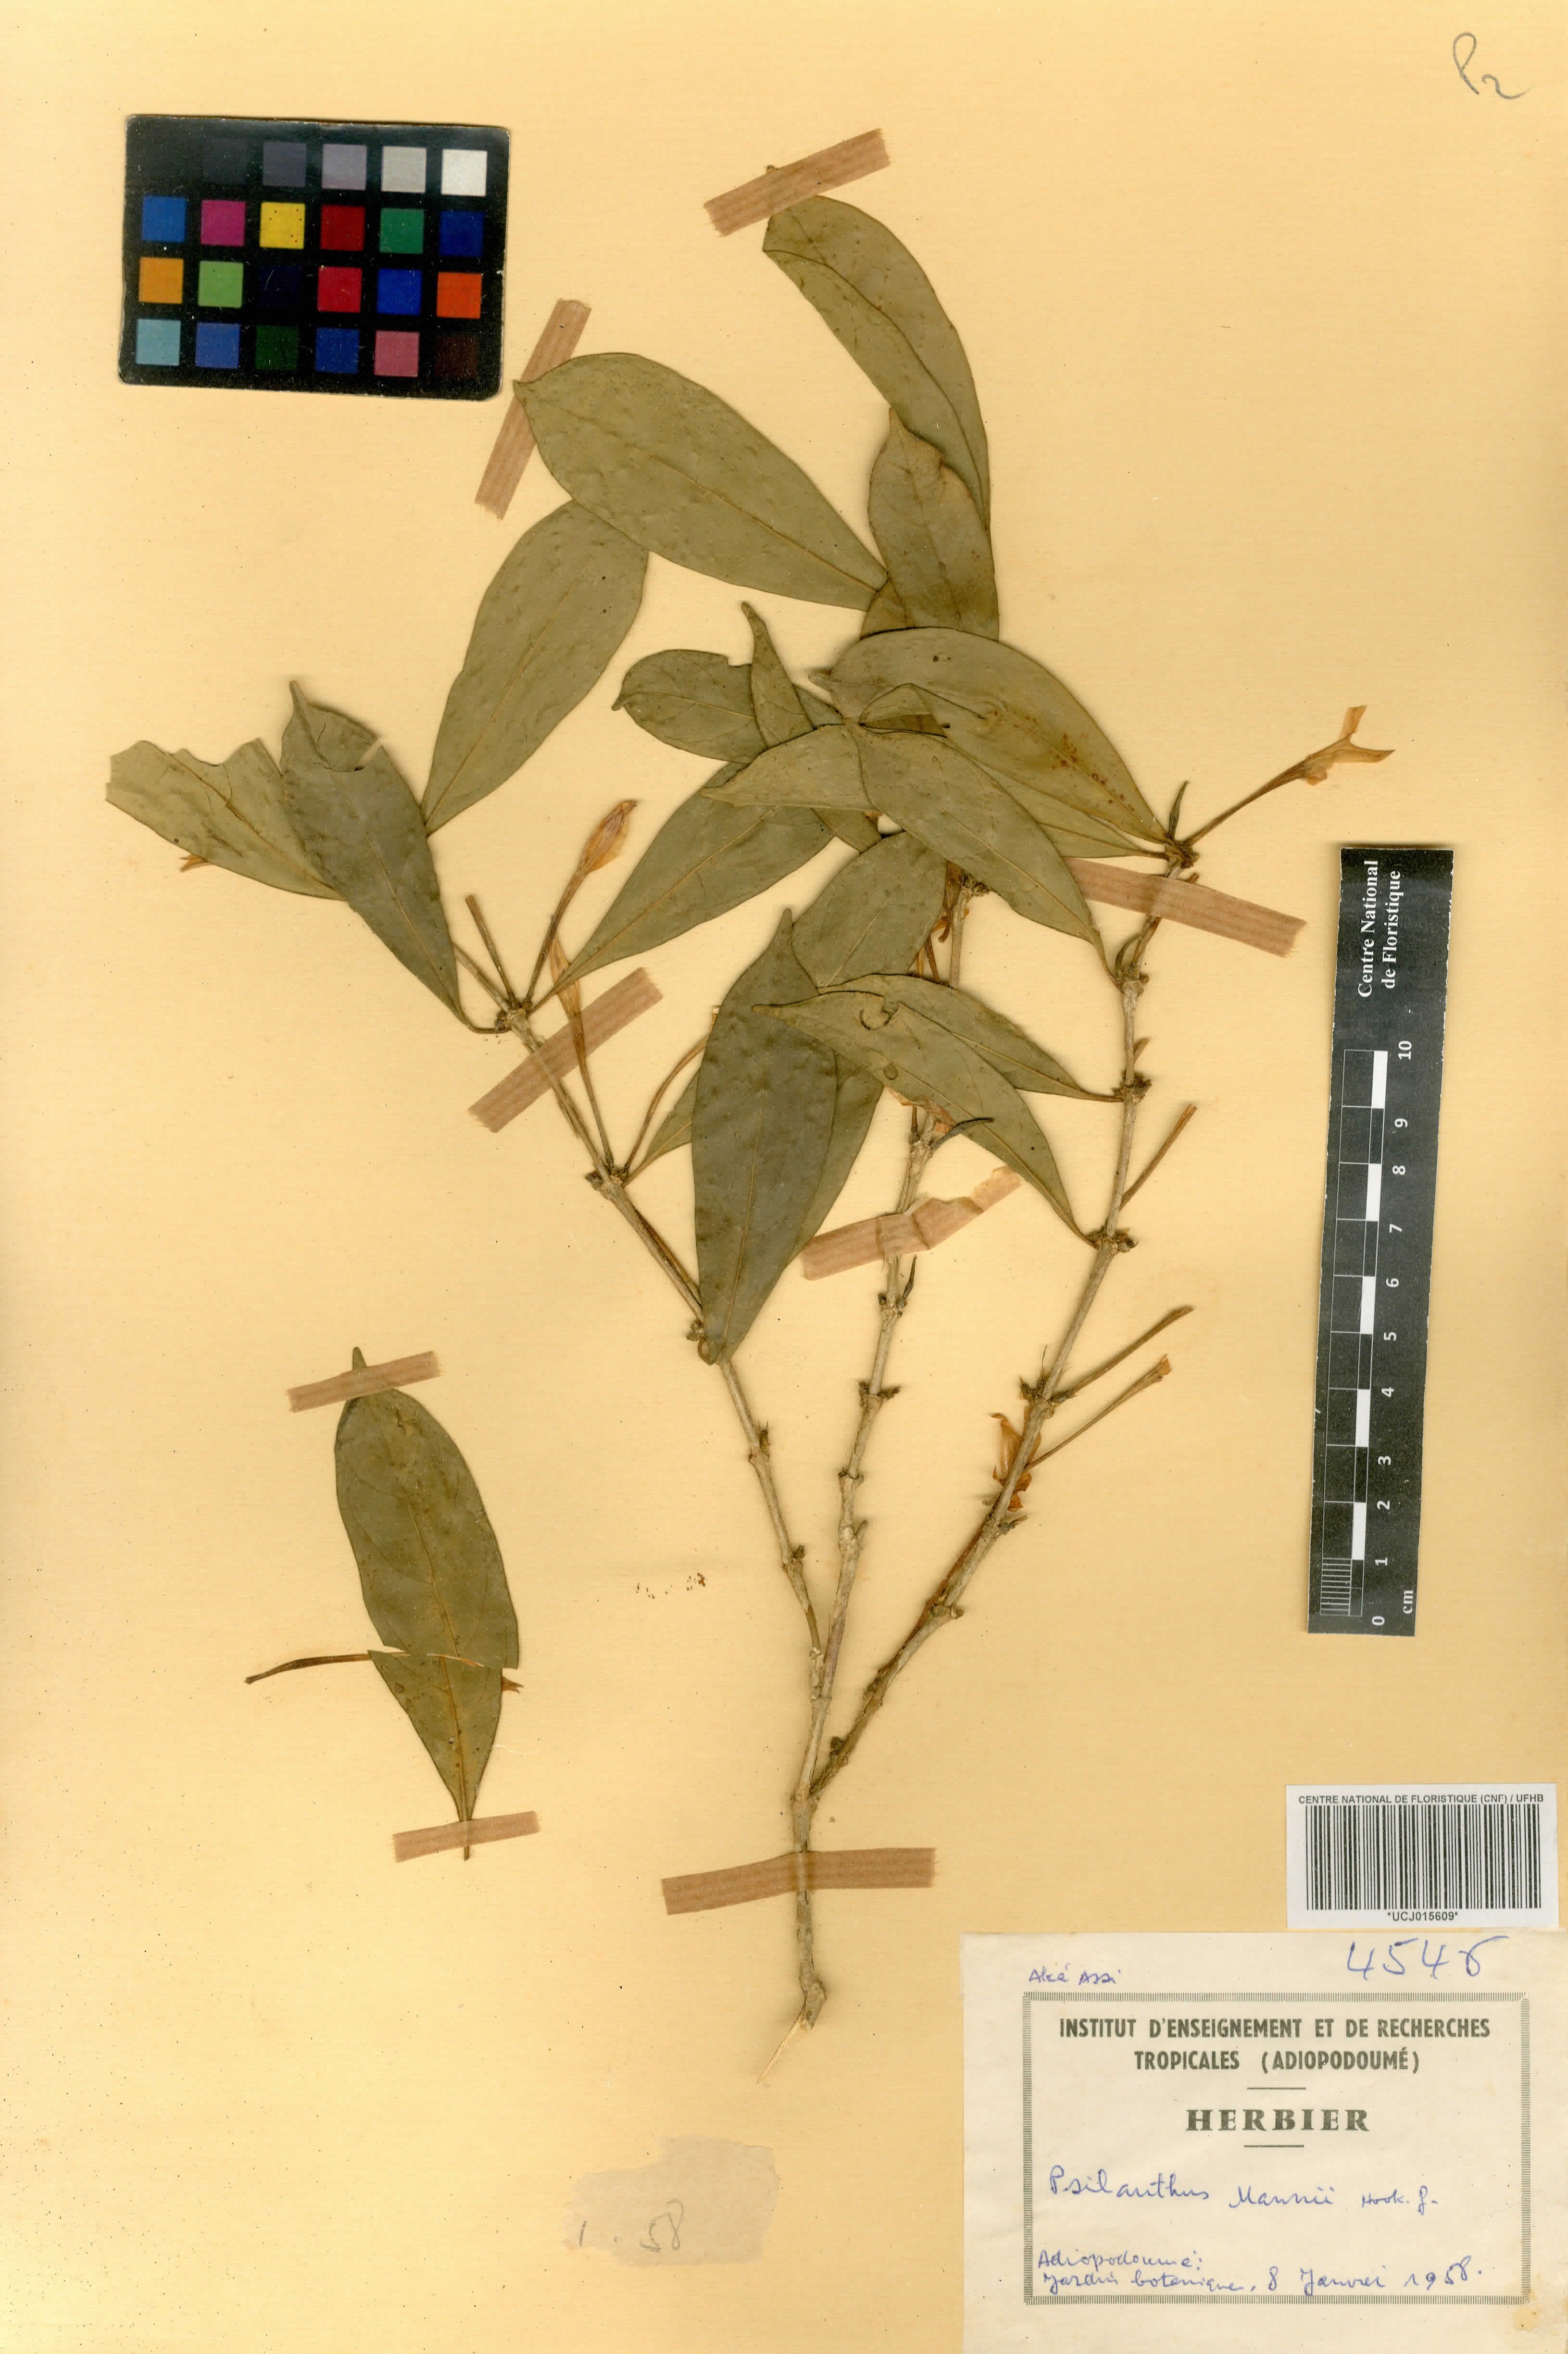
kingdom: Plantae
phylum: Tracheophyta
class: Magnoliopsida
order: Gentianales
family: Rubiaceae
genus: Coffea
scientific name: Coffea mannii
